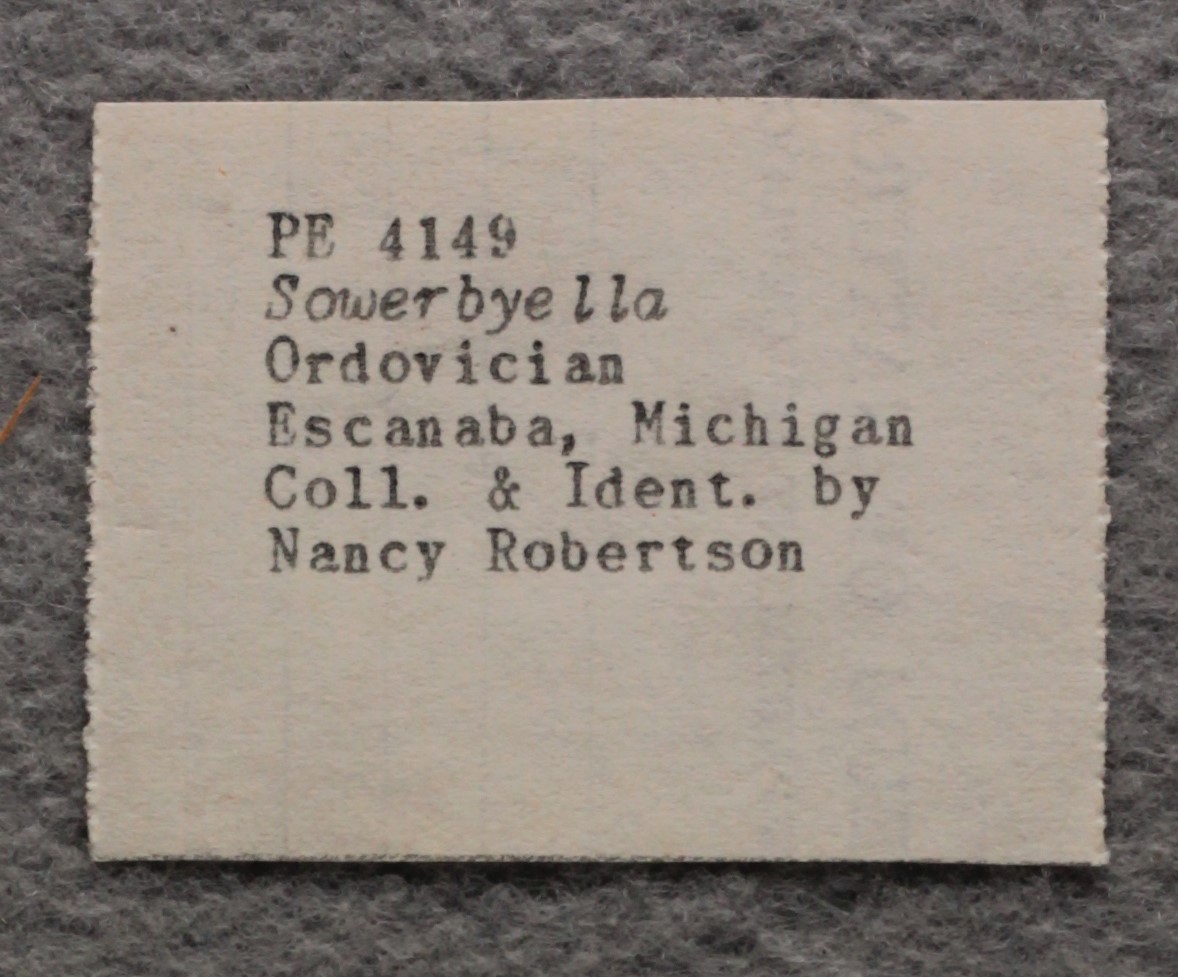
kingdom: Animalia
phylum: Brachiopoda
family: Sowerbyellidae
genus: Sowerbyella
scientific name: Sowerbyella
